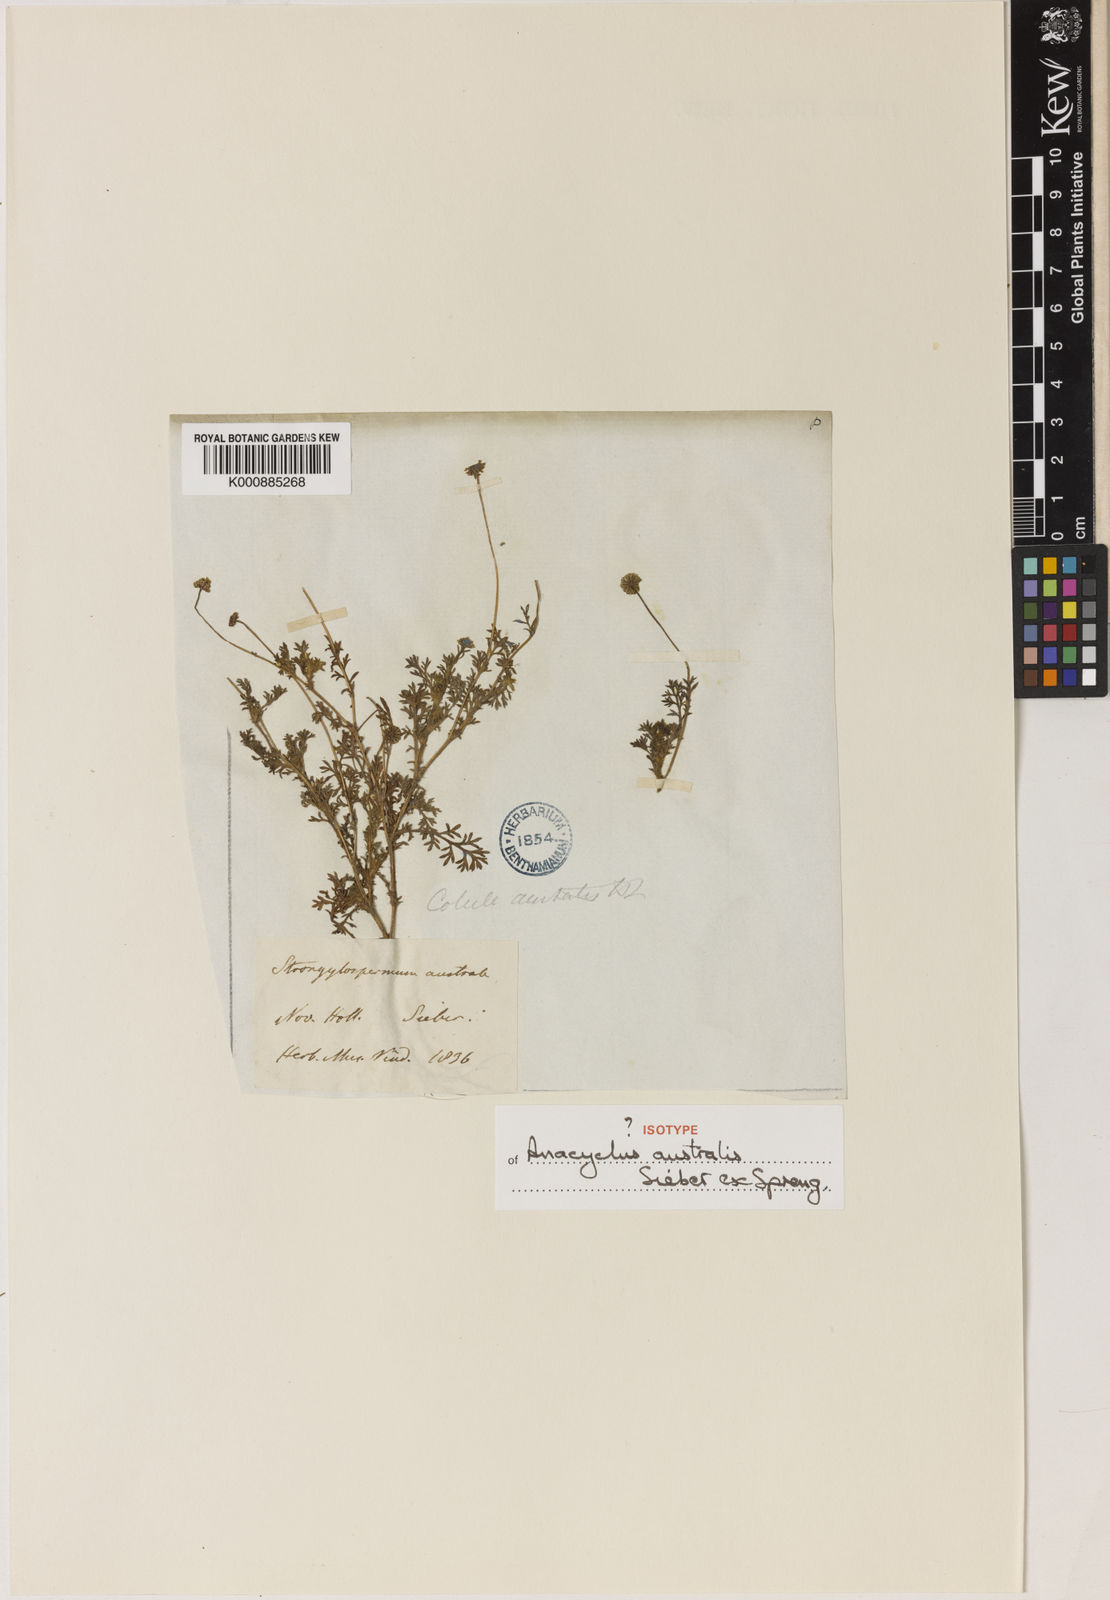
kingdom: Plantae
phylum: Tracheophyta
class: Magnoliopsida
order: Asterales
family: Asteraceae
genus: Cotula
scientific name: Cotula australis
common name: Australian waterbuttons
